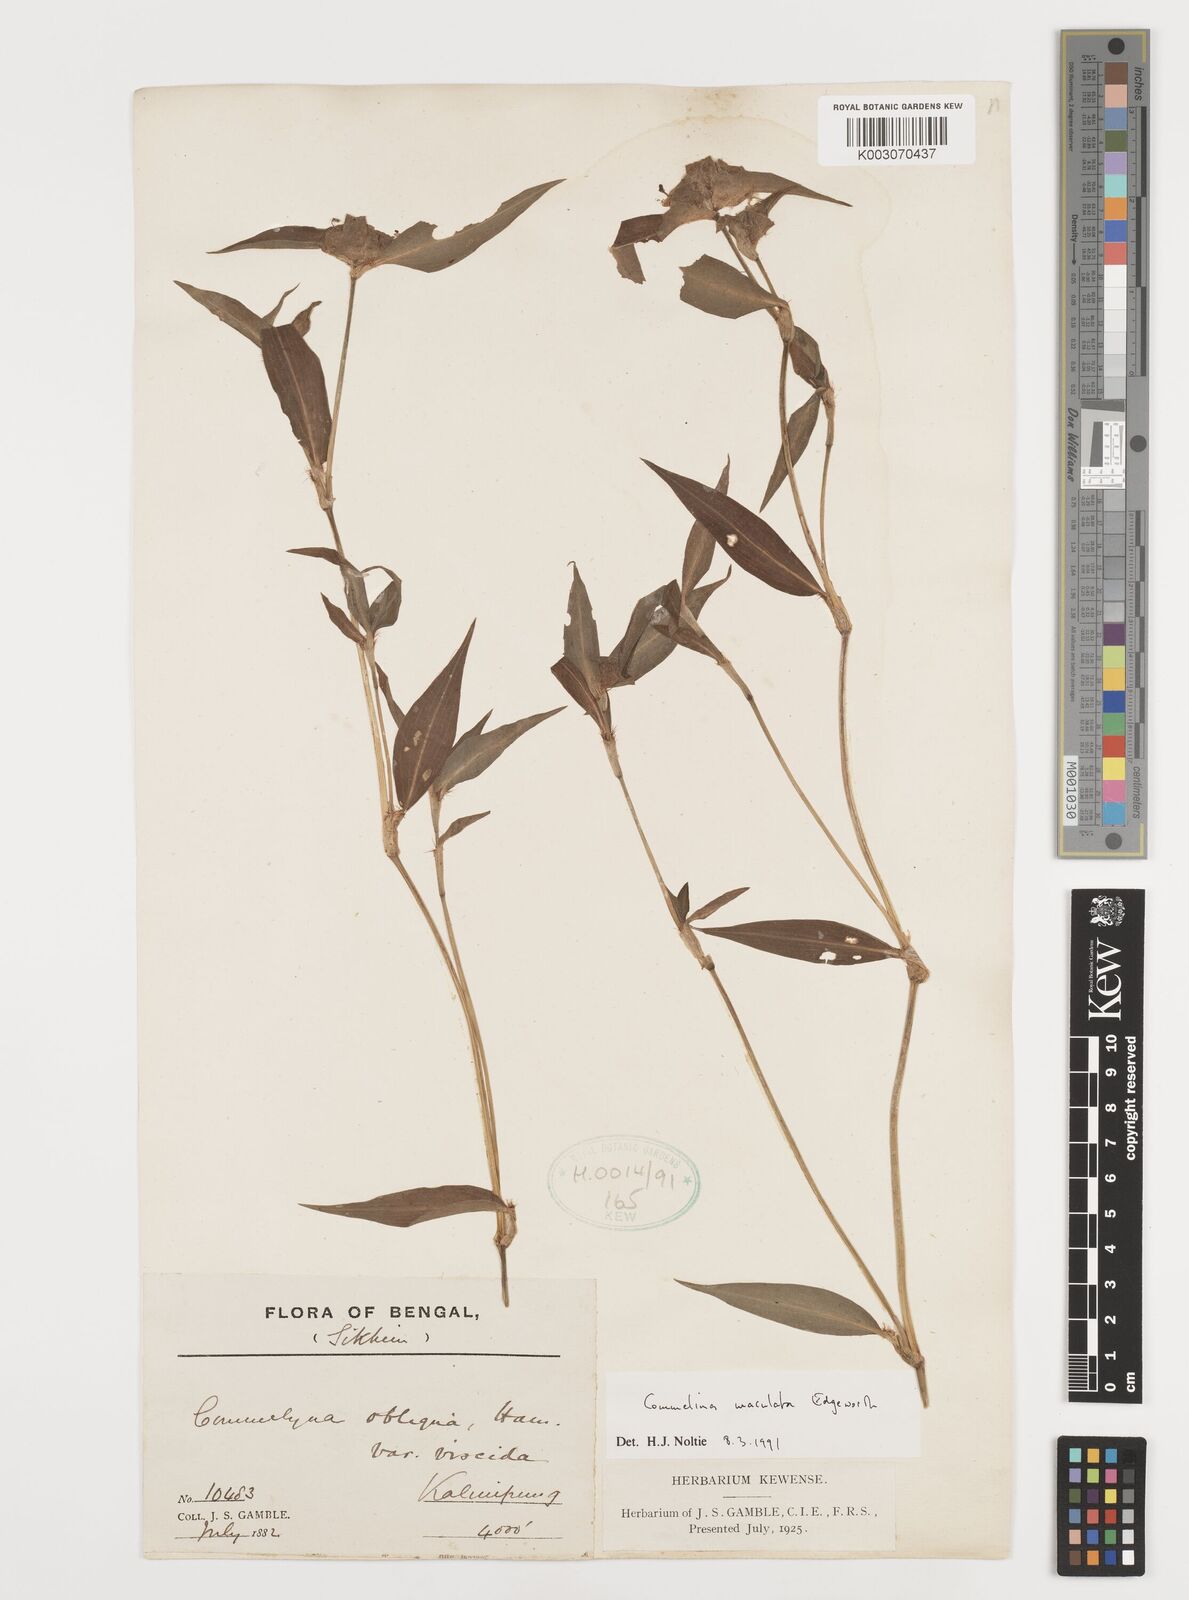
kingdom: Plantae
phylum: Tracheophyta
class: Liliopsida
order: Commelinales
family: Commelinaceae
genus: Commelina
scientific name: Commelina maculata
